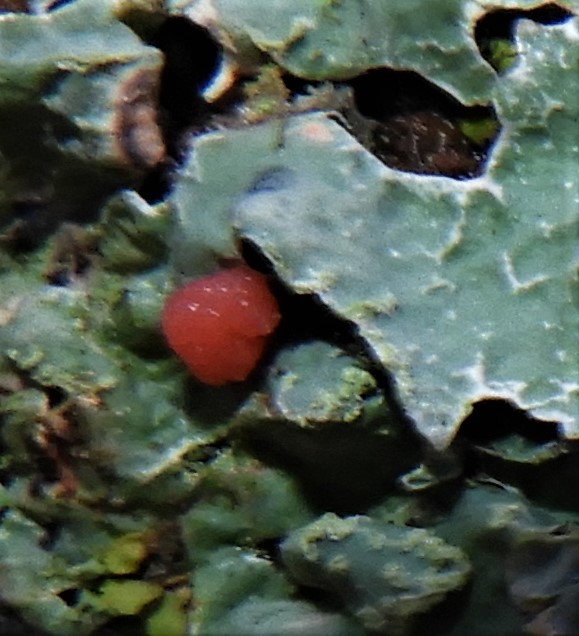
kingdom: Fungi
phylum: Ascomycota
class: Sordariomycetes
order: Hypocreales
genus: Illosporiopsis
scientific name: Illosporiopsis christiansenii
